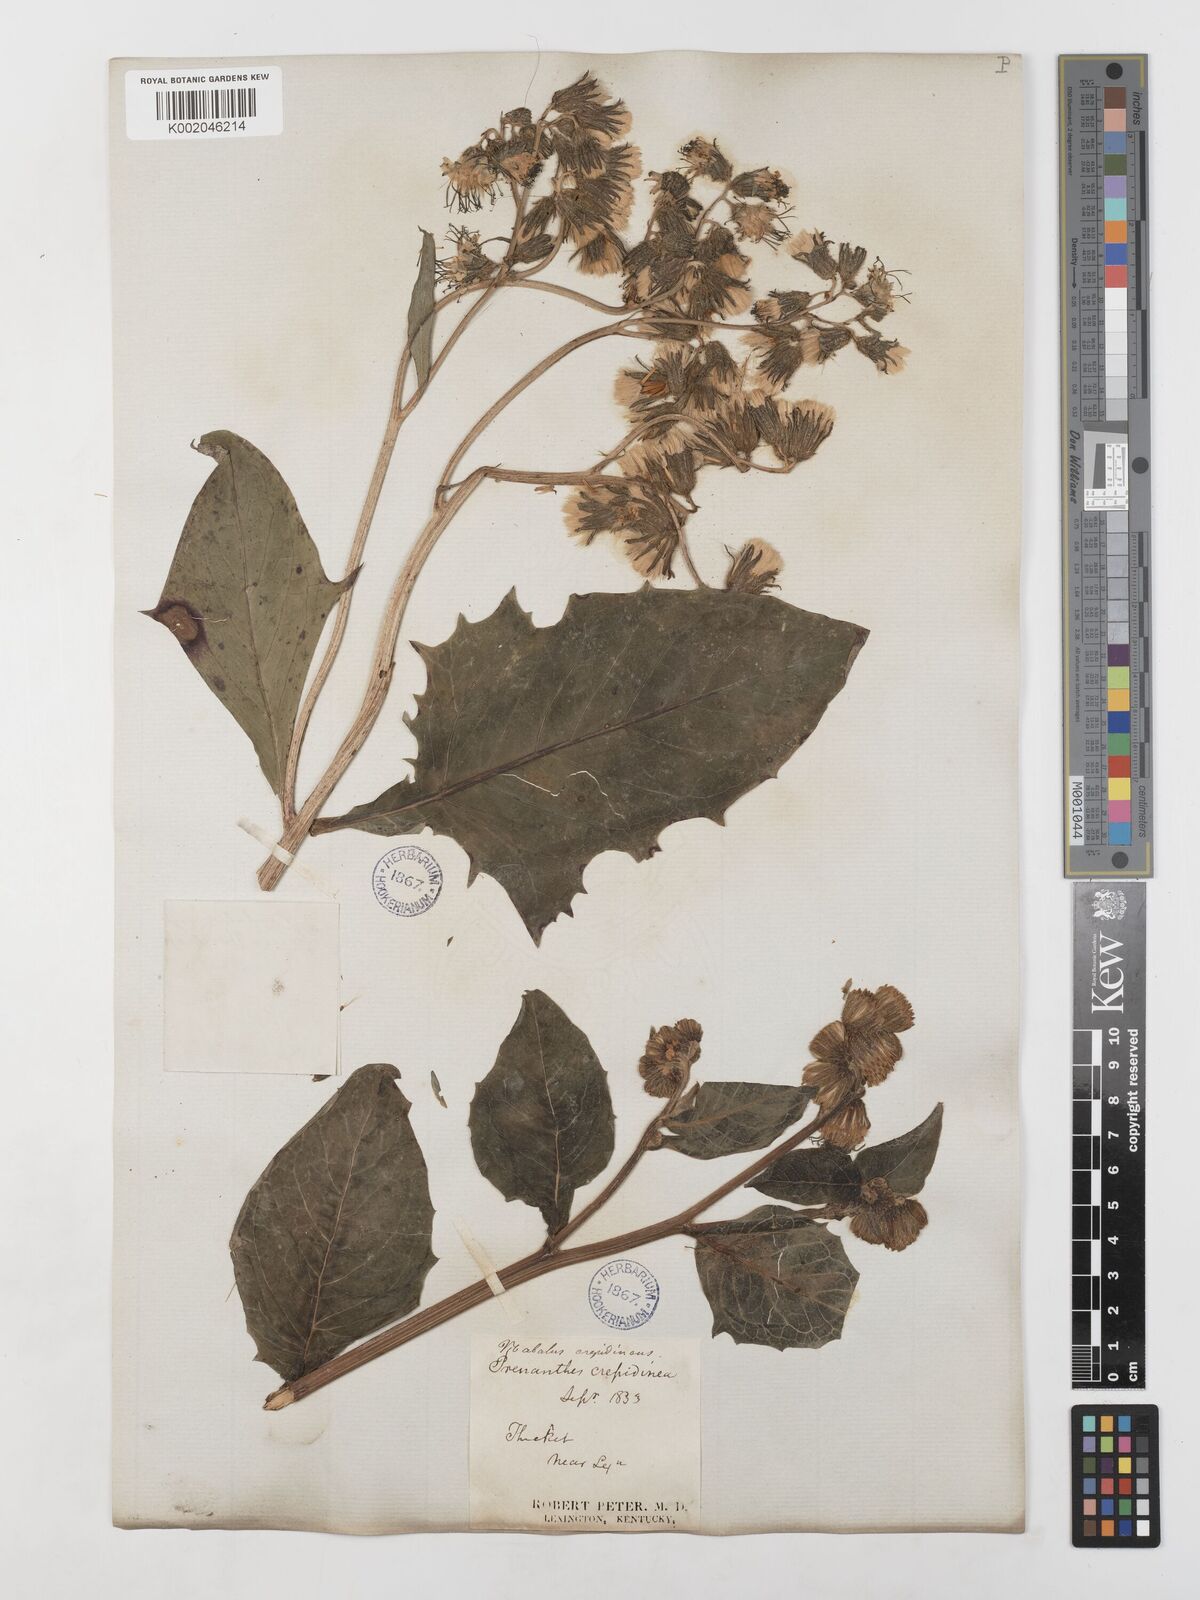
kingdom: Plantae
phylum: Tracheophyta
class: Magnoliopsida
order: Asterales
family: Asteraceae
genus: Nabalus
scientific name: Nabalus crepidineus
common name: Nodding rattlesnakeroot
